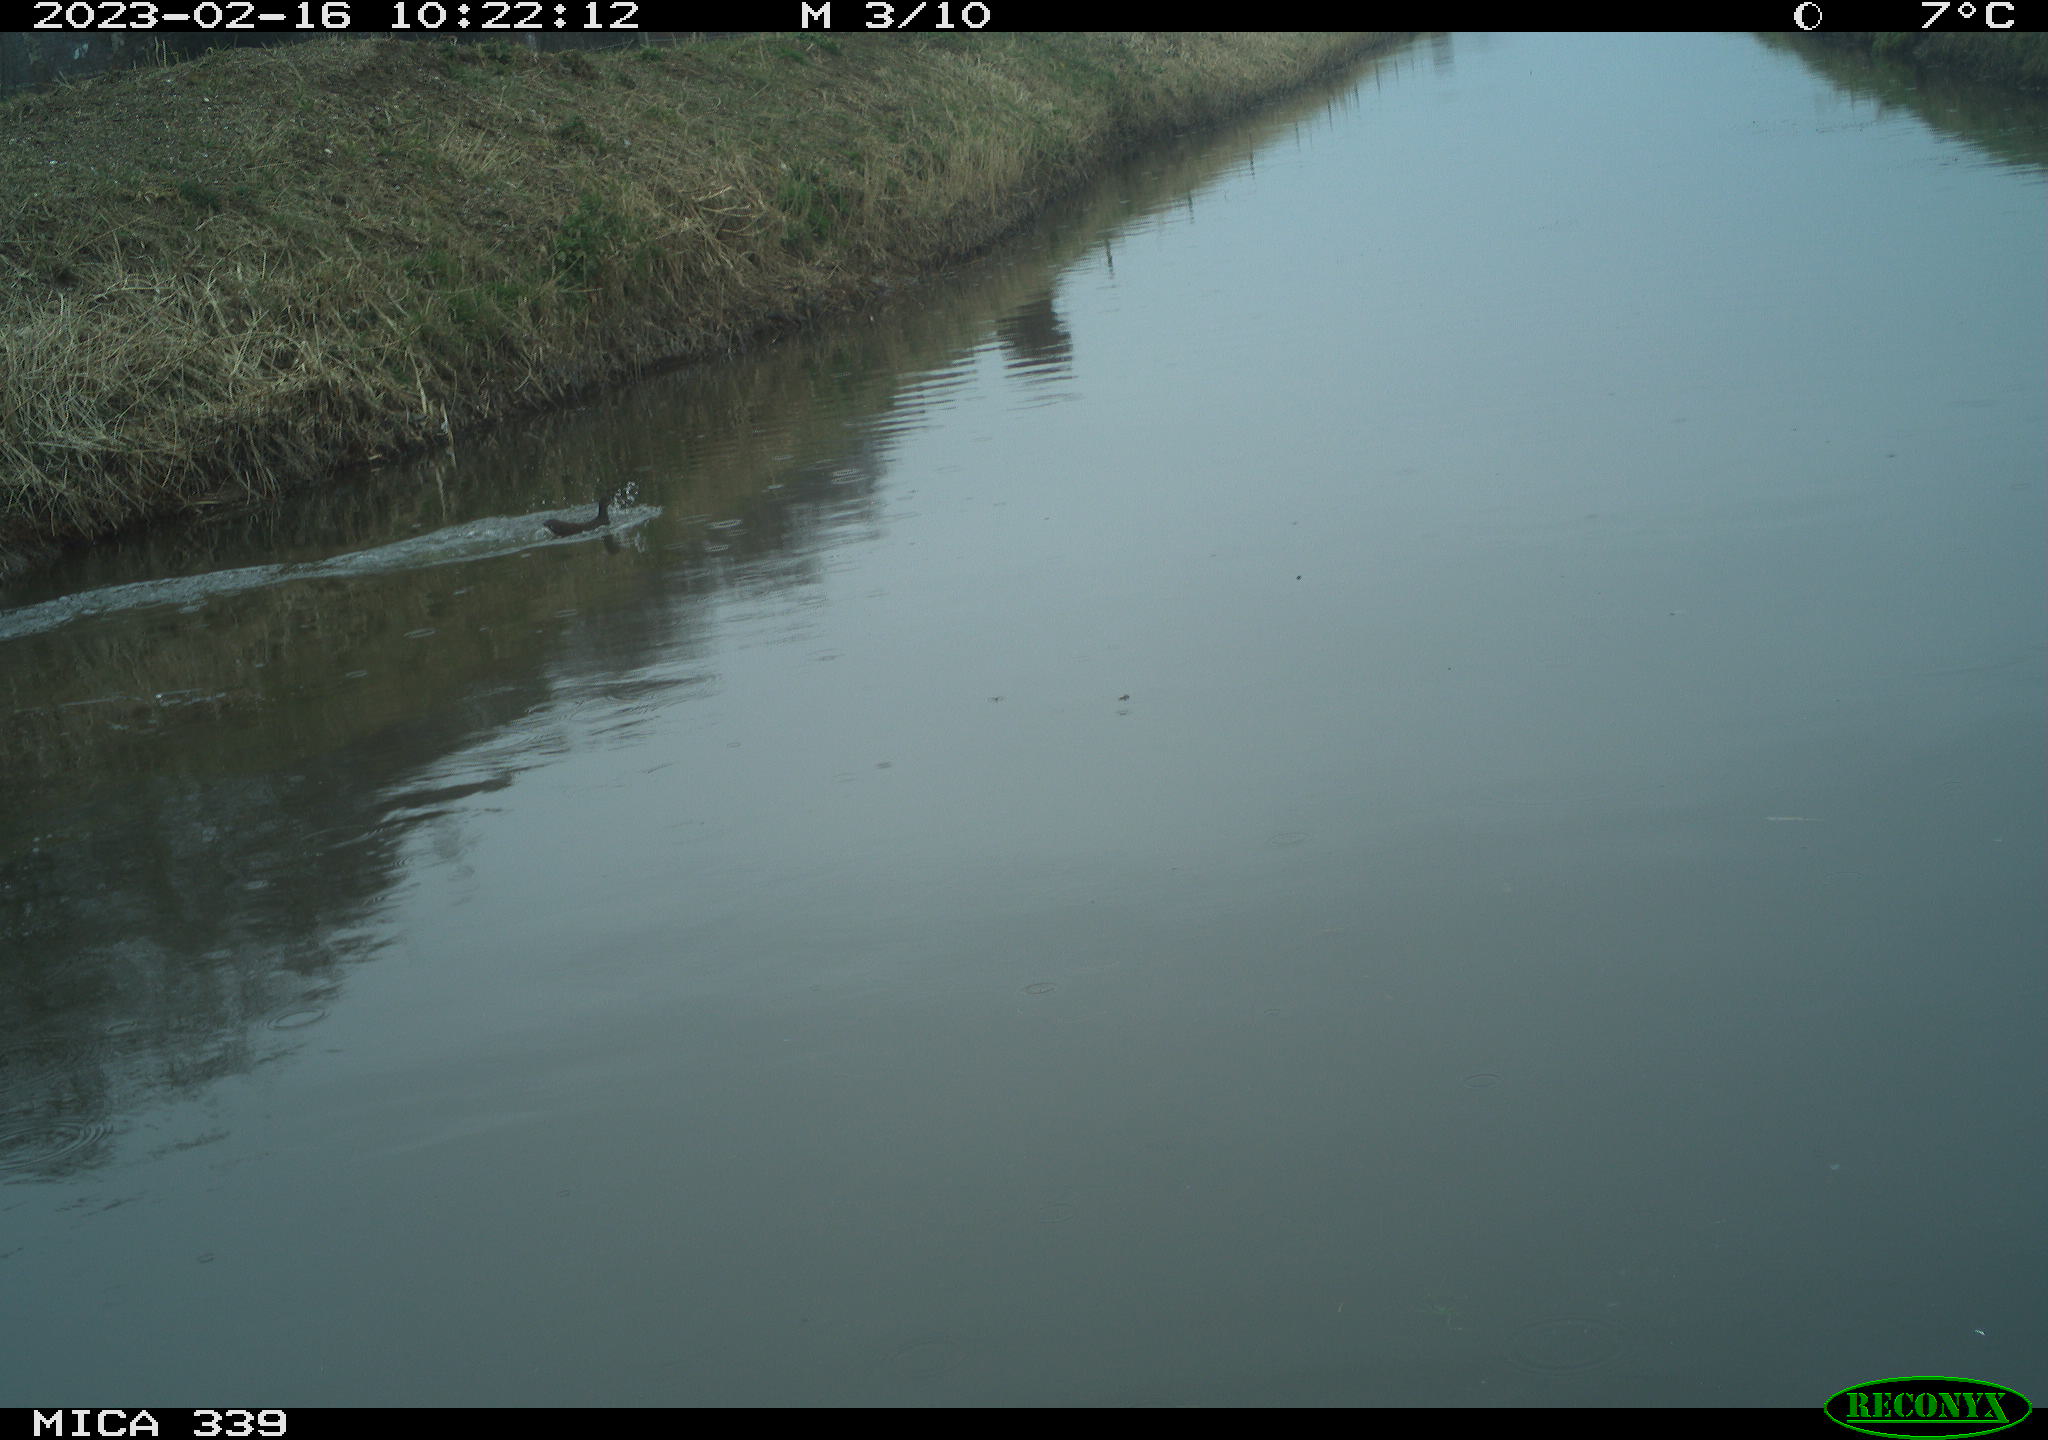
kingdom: Animalia
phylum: Chordata
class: Aves
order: Gruiformes
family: Rallidae
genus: Gallinula
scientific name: Gallinula chloropus
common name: Common moorhen
